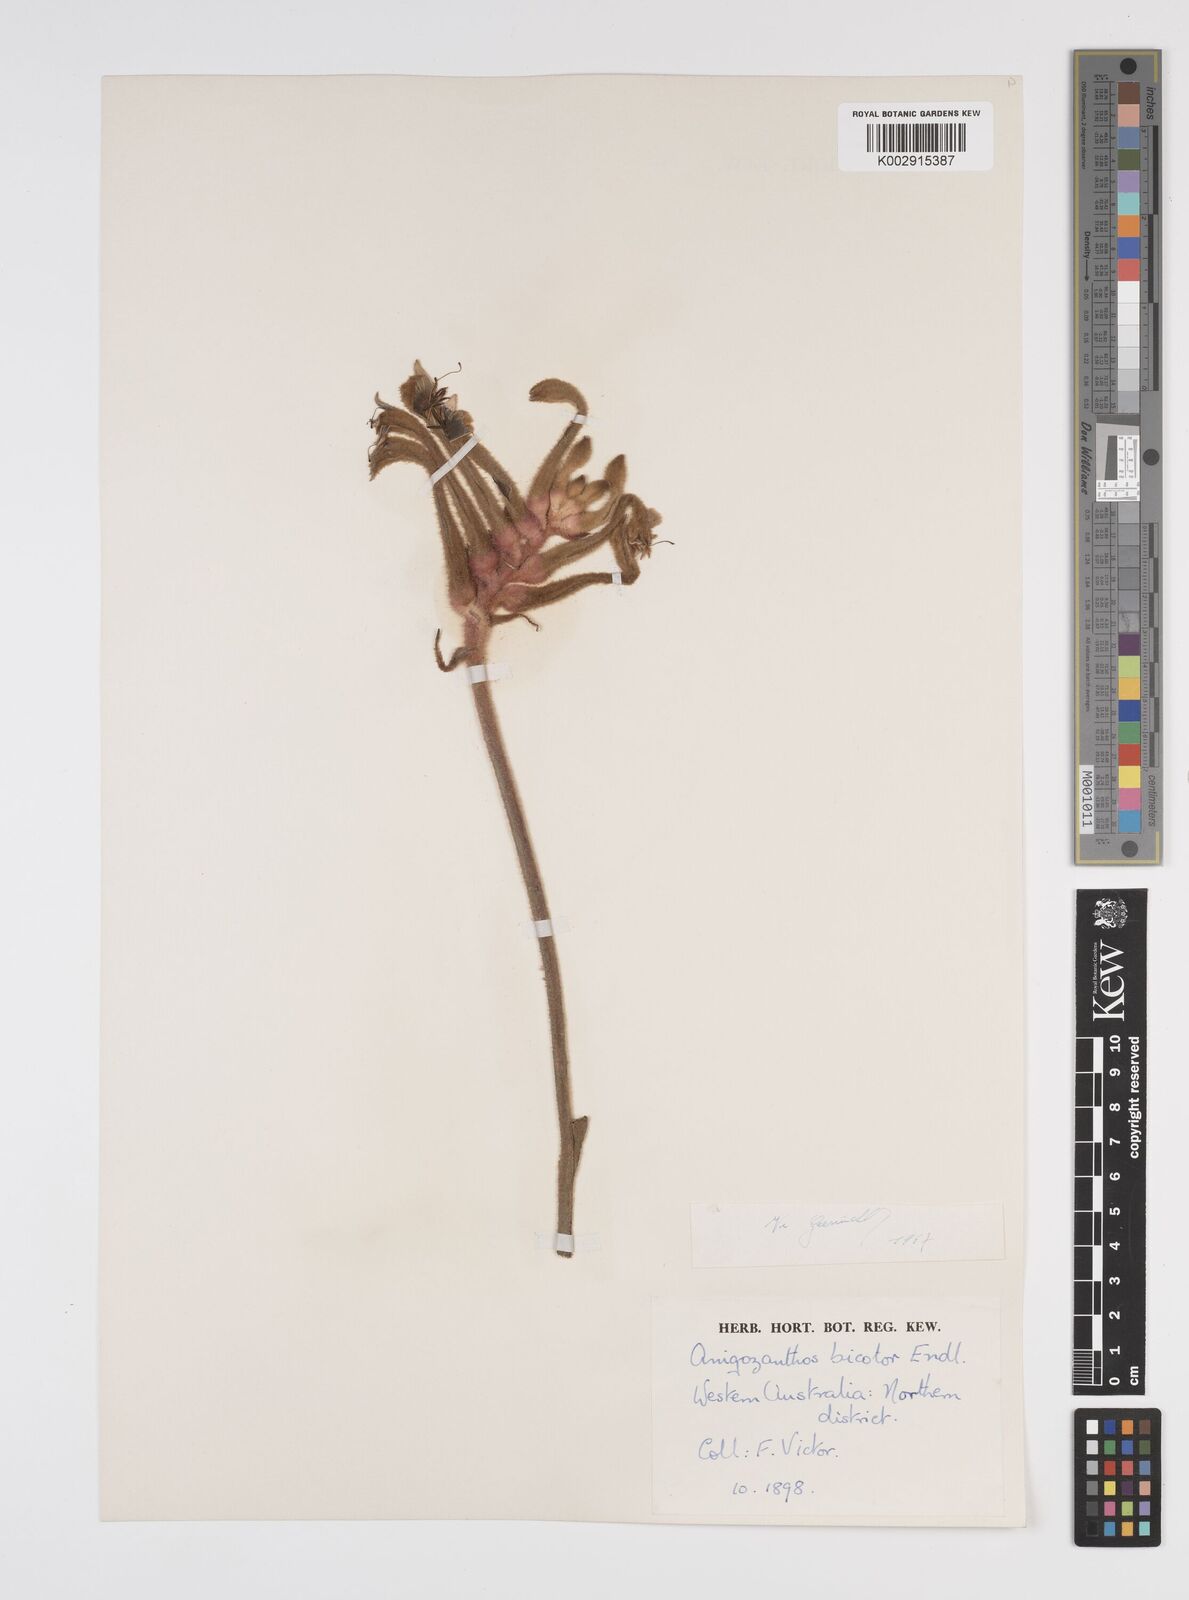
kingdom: Plantae
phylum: Tracheophyta
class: Liliopsida
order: Commelinales
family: Haemodoraceae
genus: Anigozanthos
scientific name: Anigozanthos bicolor
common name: Little kangaroo-paw
